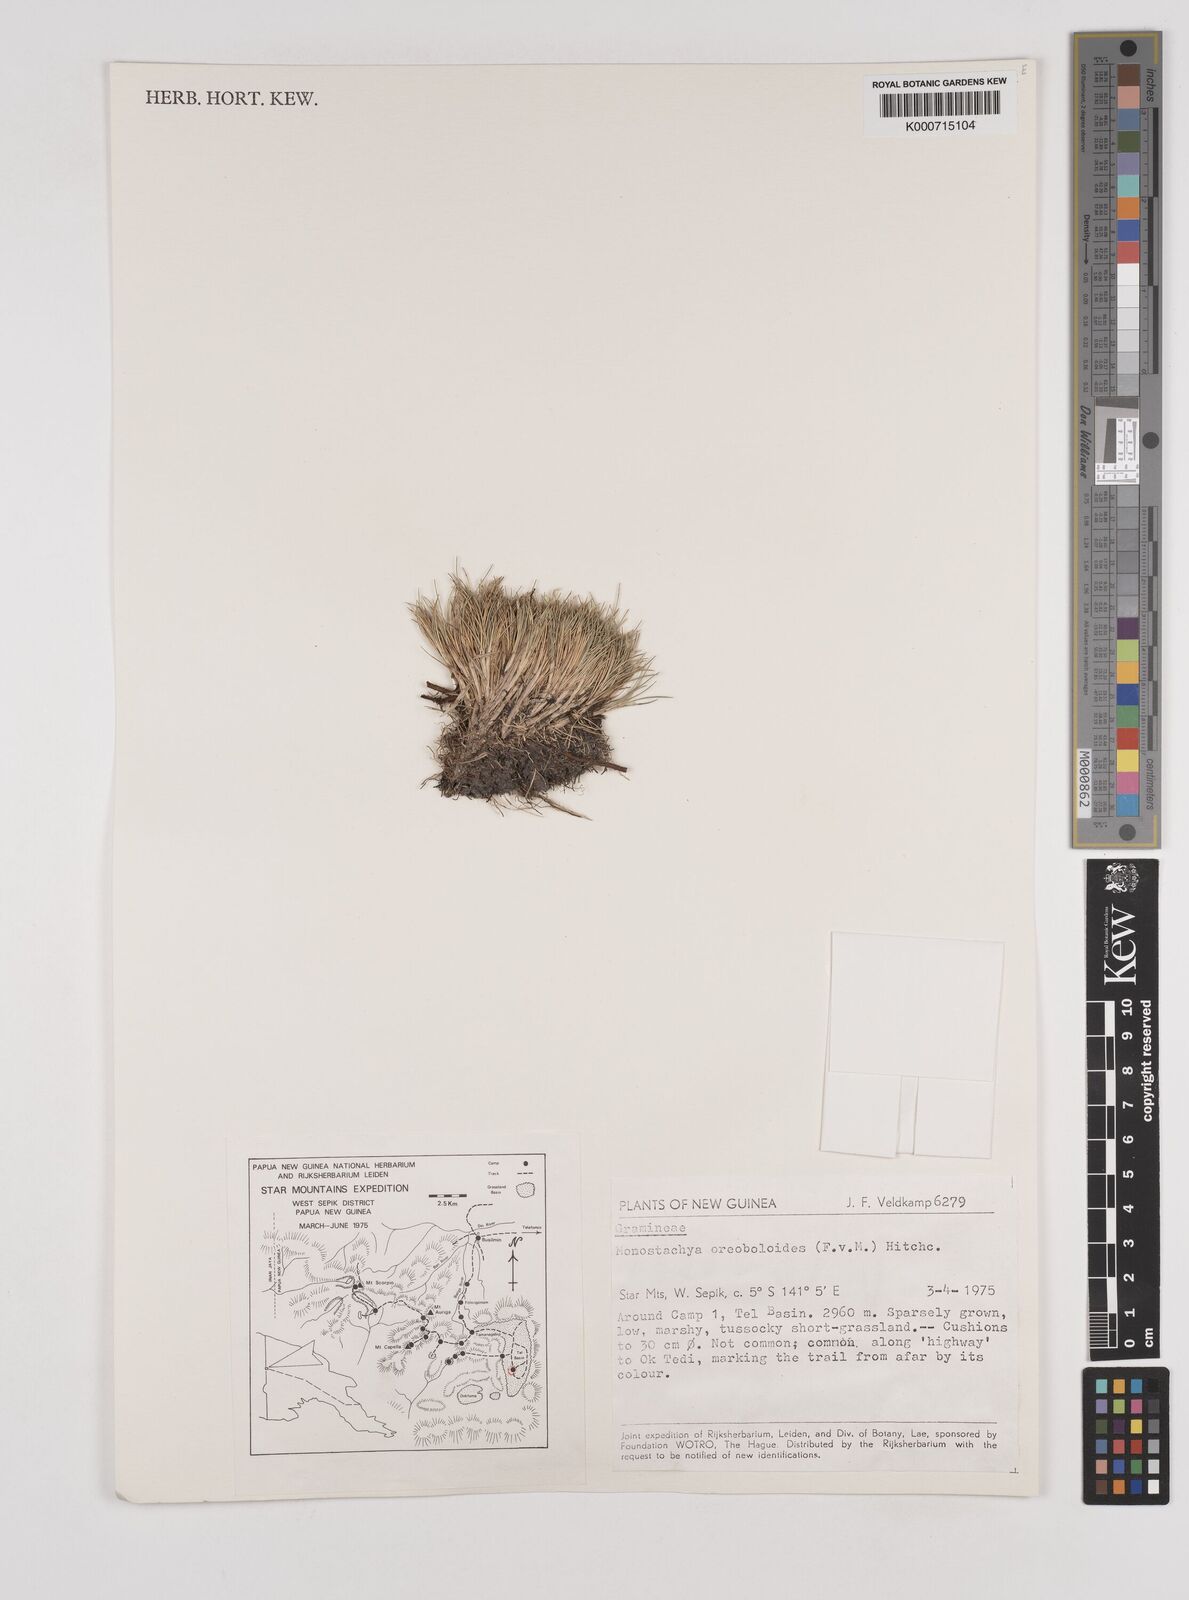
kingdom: Plantae
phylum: Tracheophyta
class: Liliopsida
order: Poales
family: Poaceae
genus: Rytidosperma
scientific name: Rytidosperma oreoboloides
